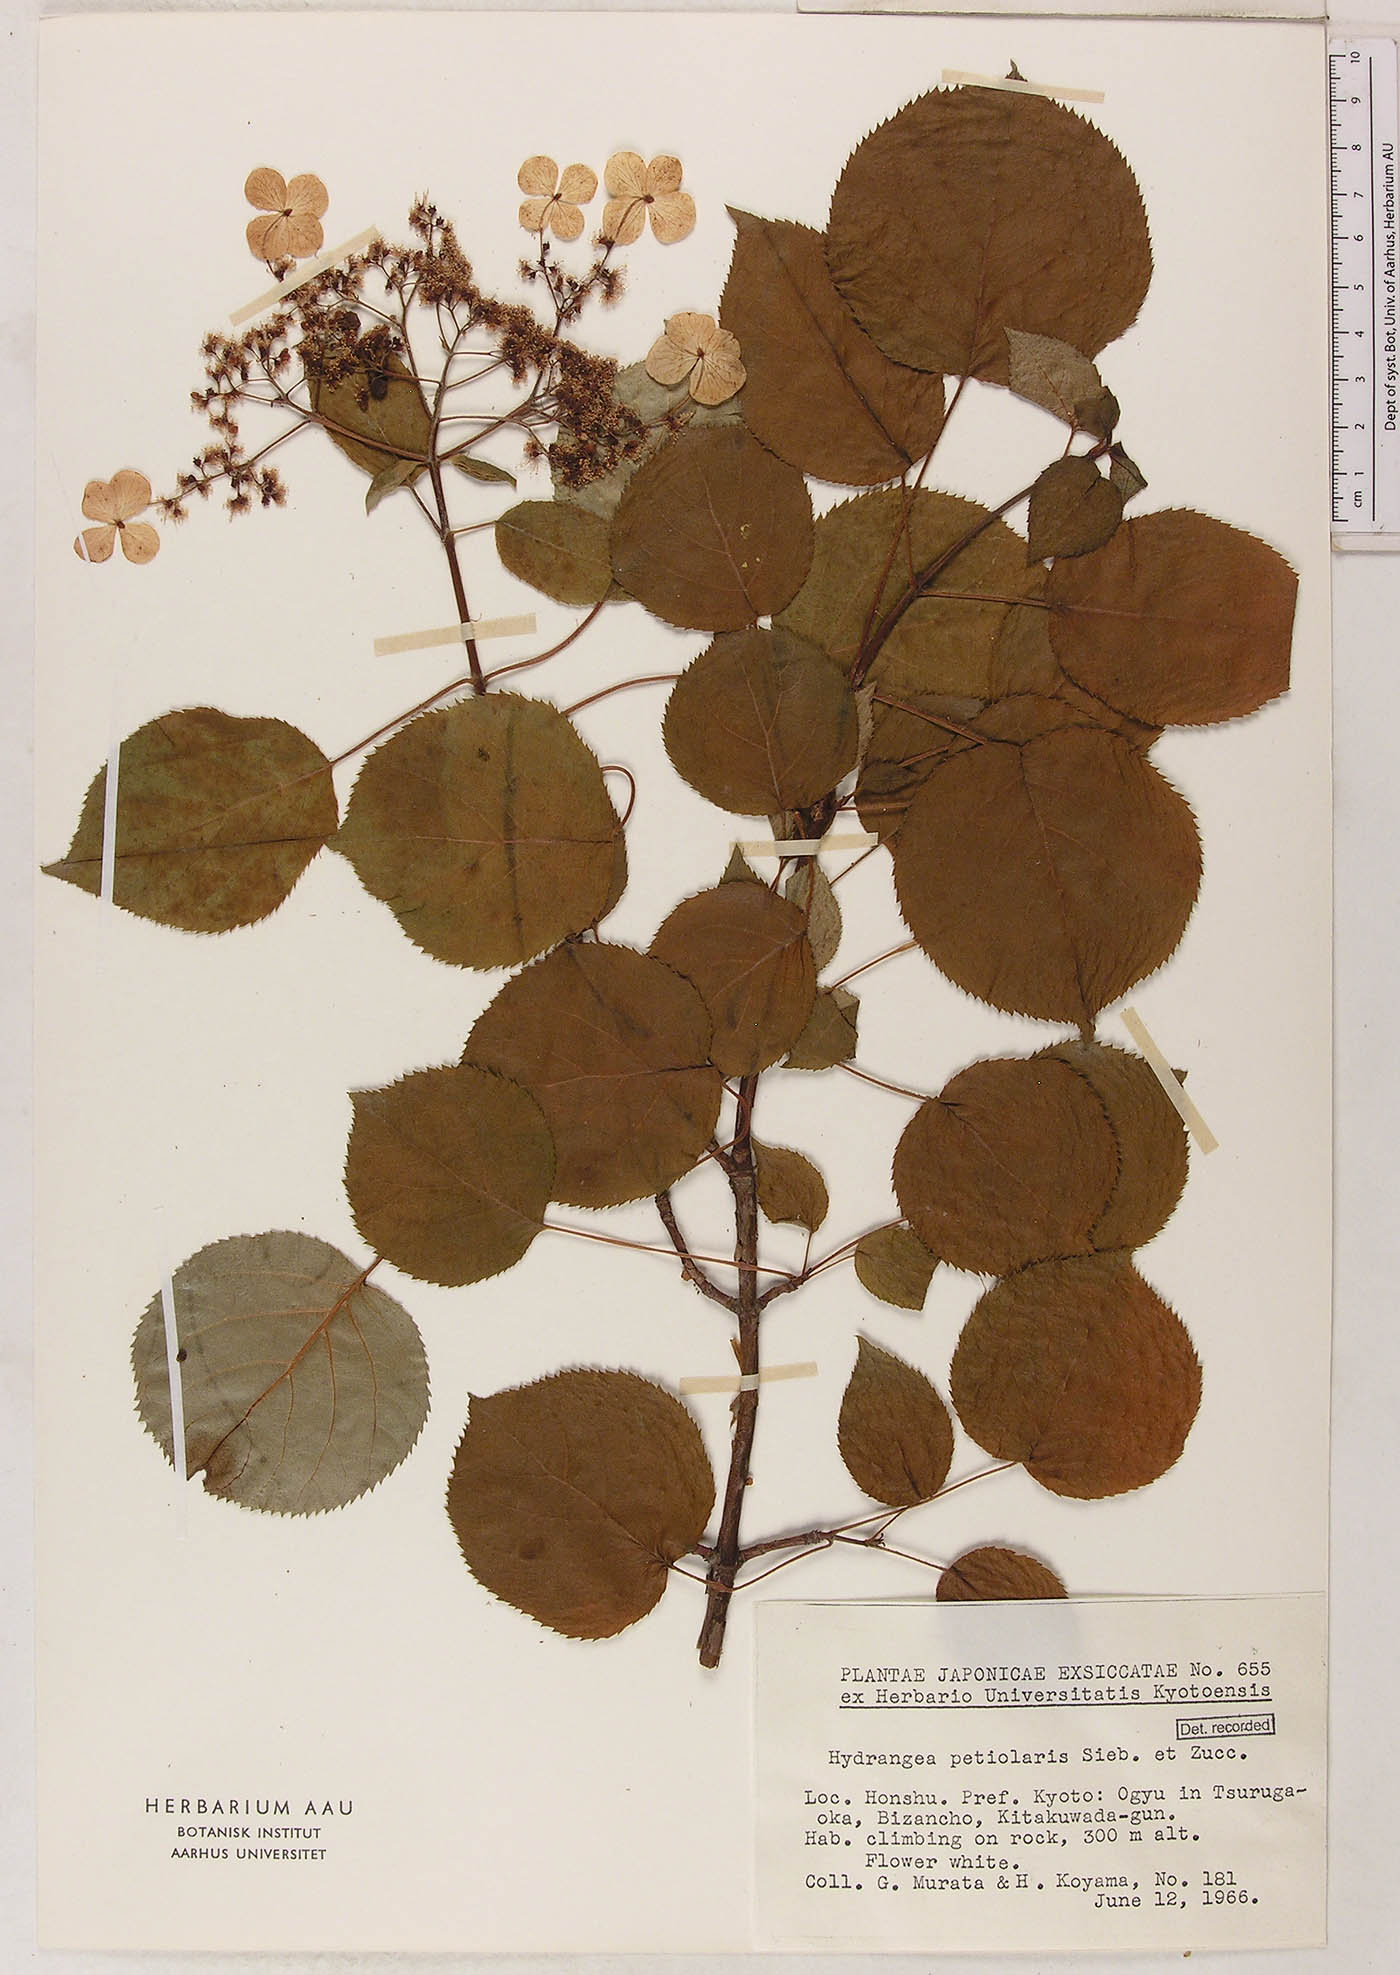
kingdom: Plantae
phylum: Tracheophyta
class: Magnoliopsida
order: Cornales
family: Hydrangeaceae
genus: Hydrangea
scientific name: Hydrangea petiolaris
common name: Japanese climbing hydrangea
